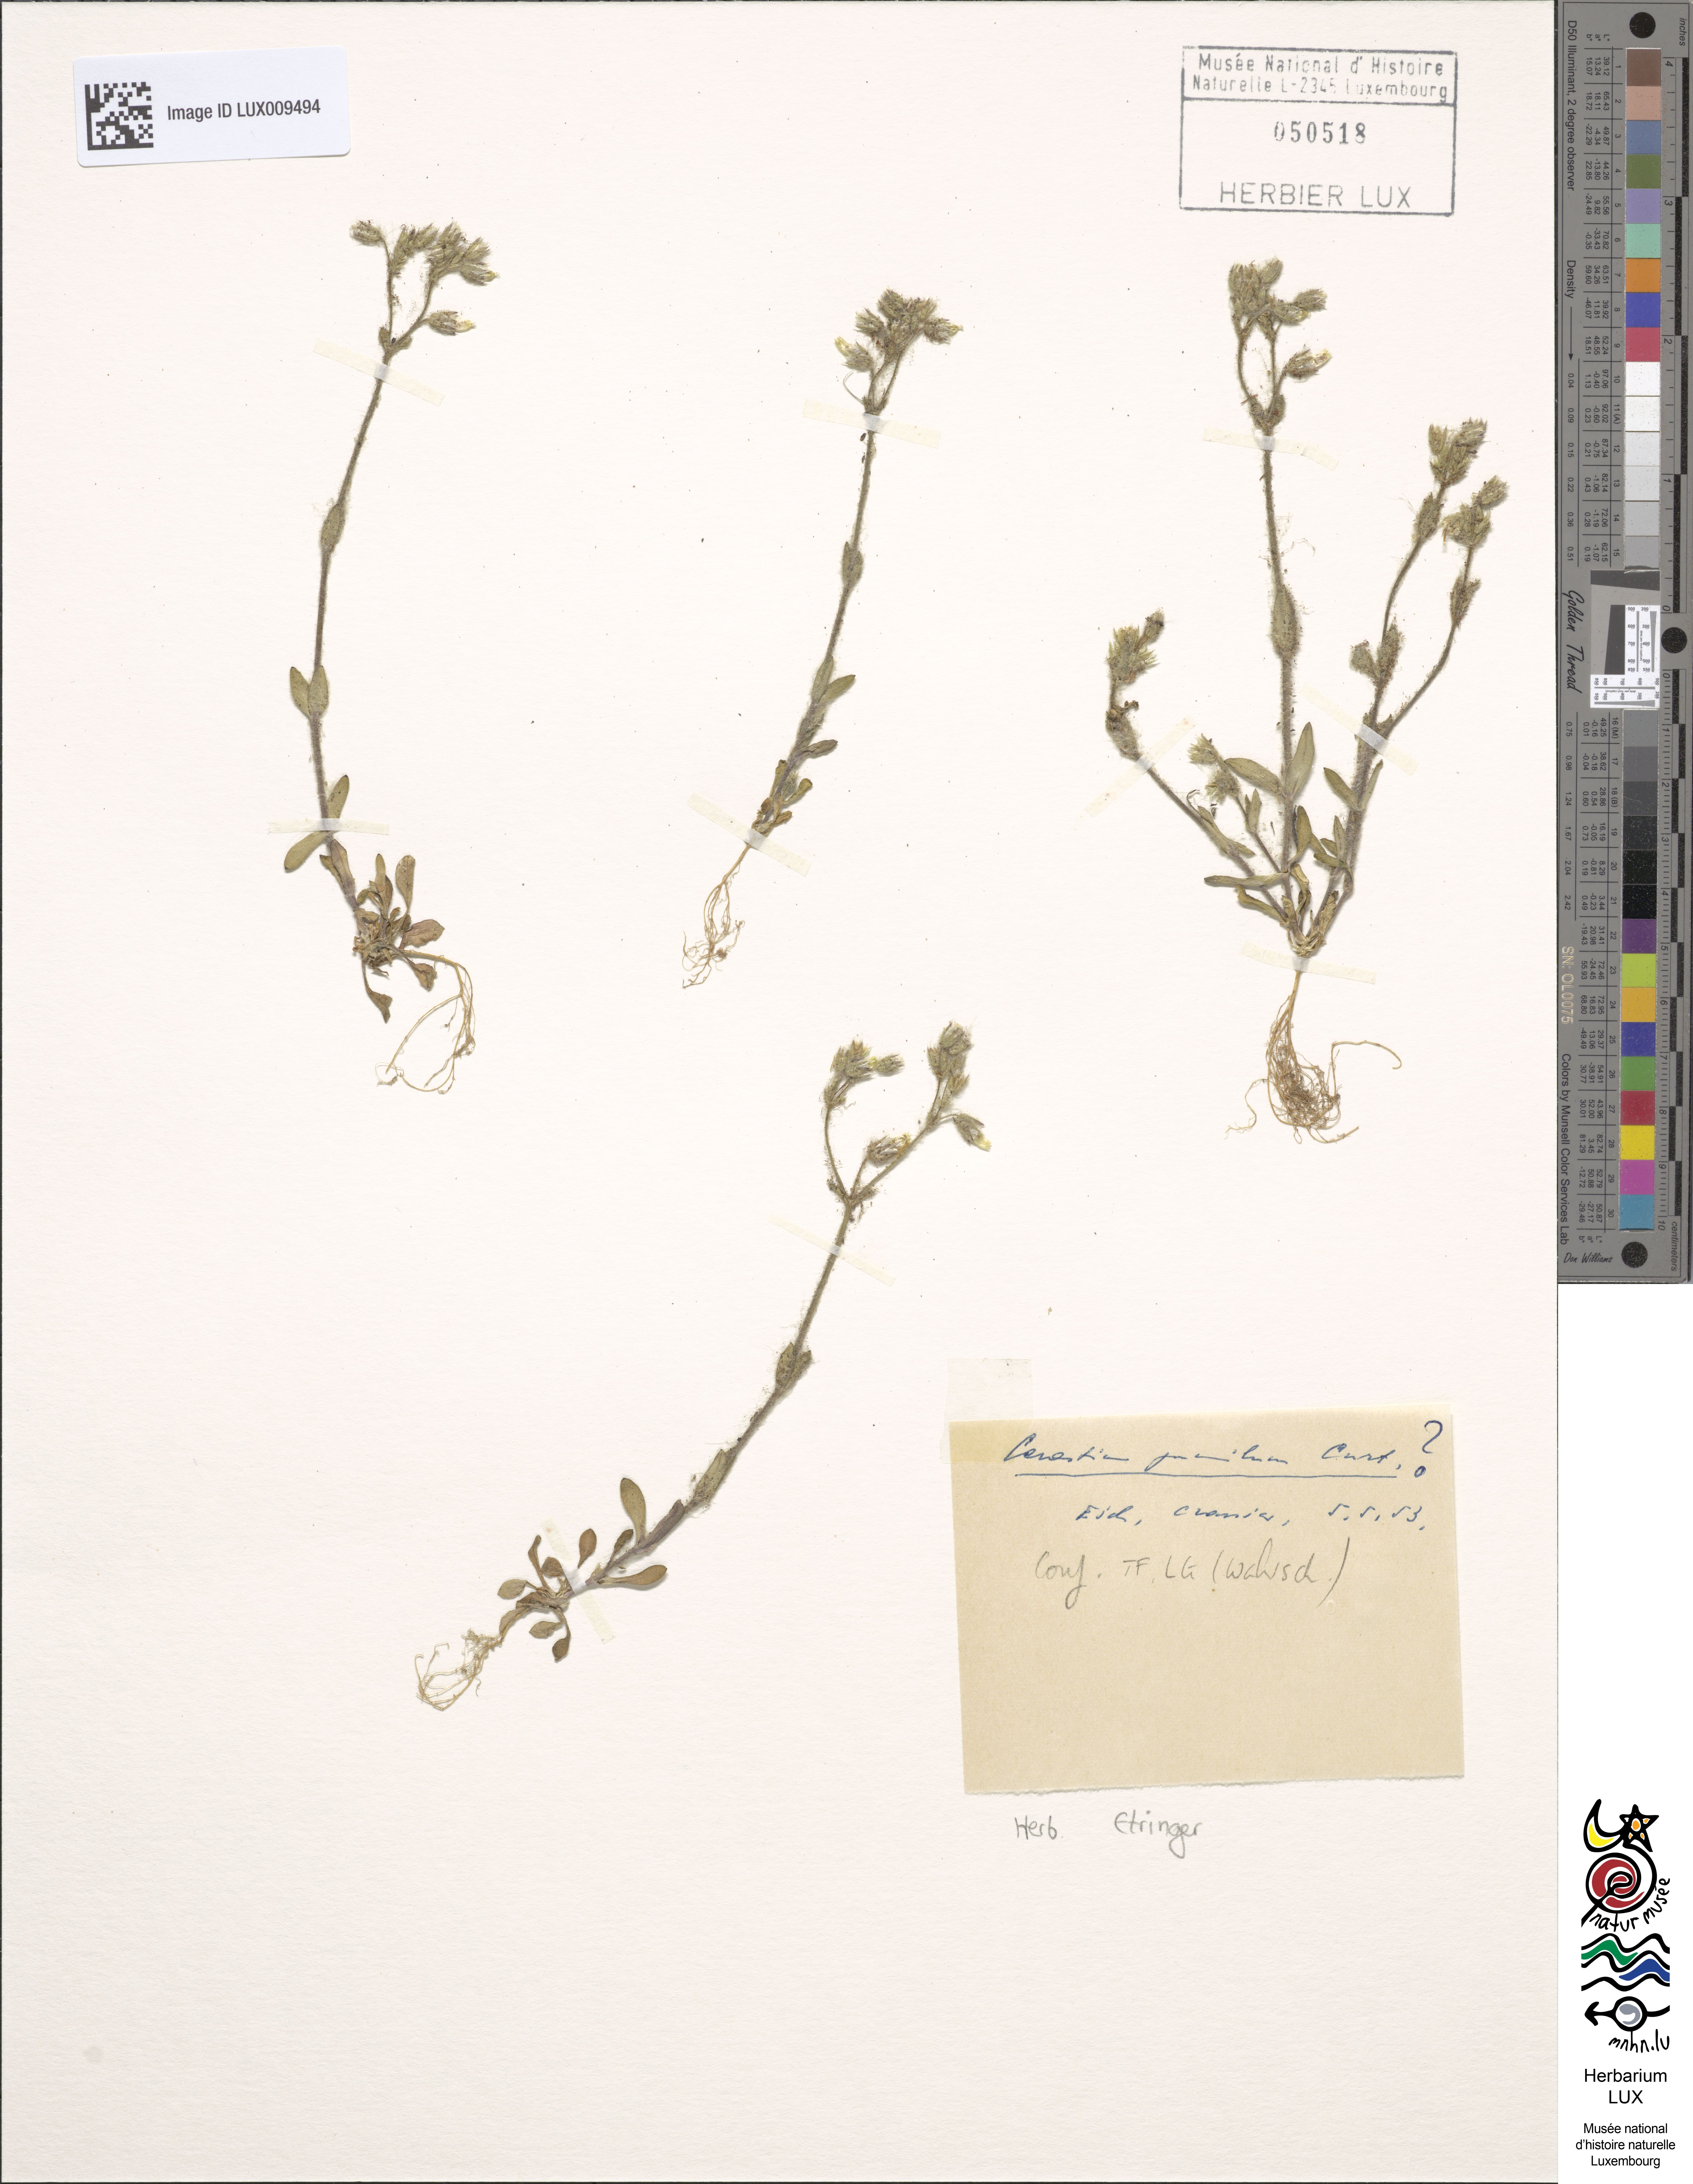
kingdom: Plantae
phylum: Tracheophyta
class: Magnoliopsida
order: Caryophyllales
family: Caryophyllaceae
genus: Cerastium
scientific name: Cerastium pumilum
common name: Dwarf mouse-ear
